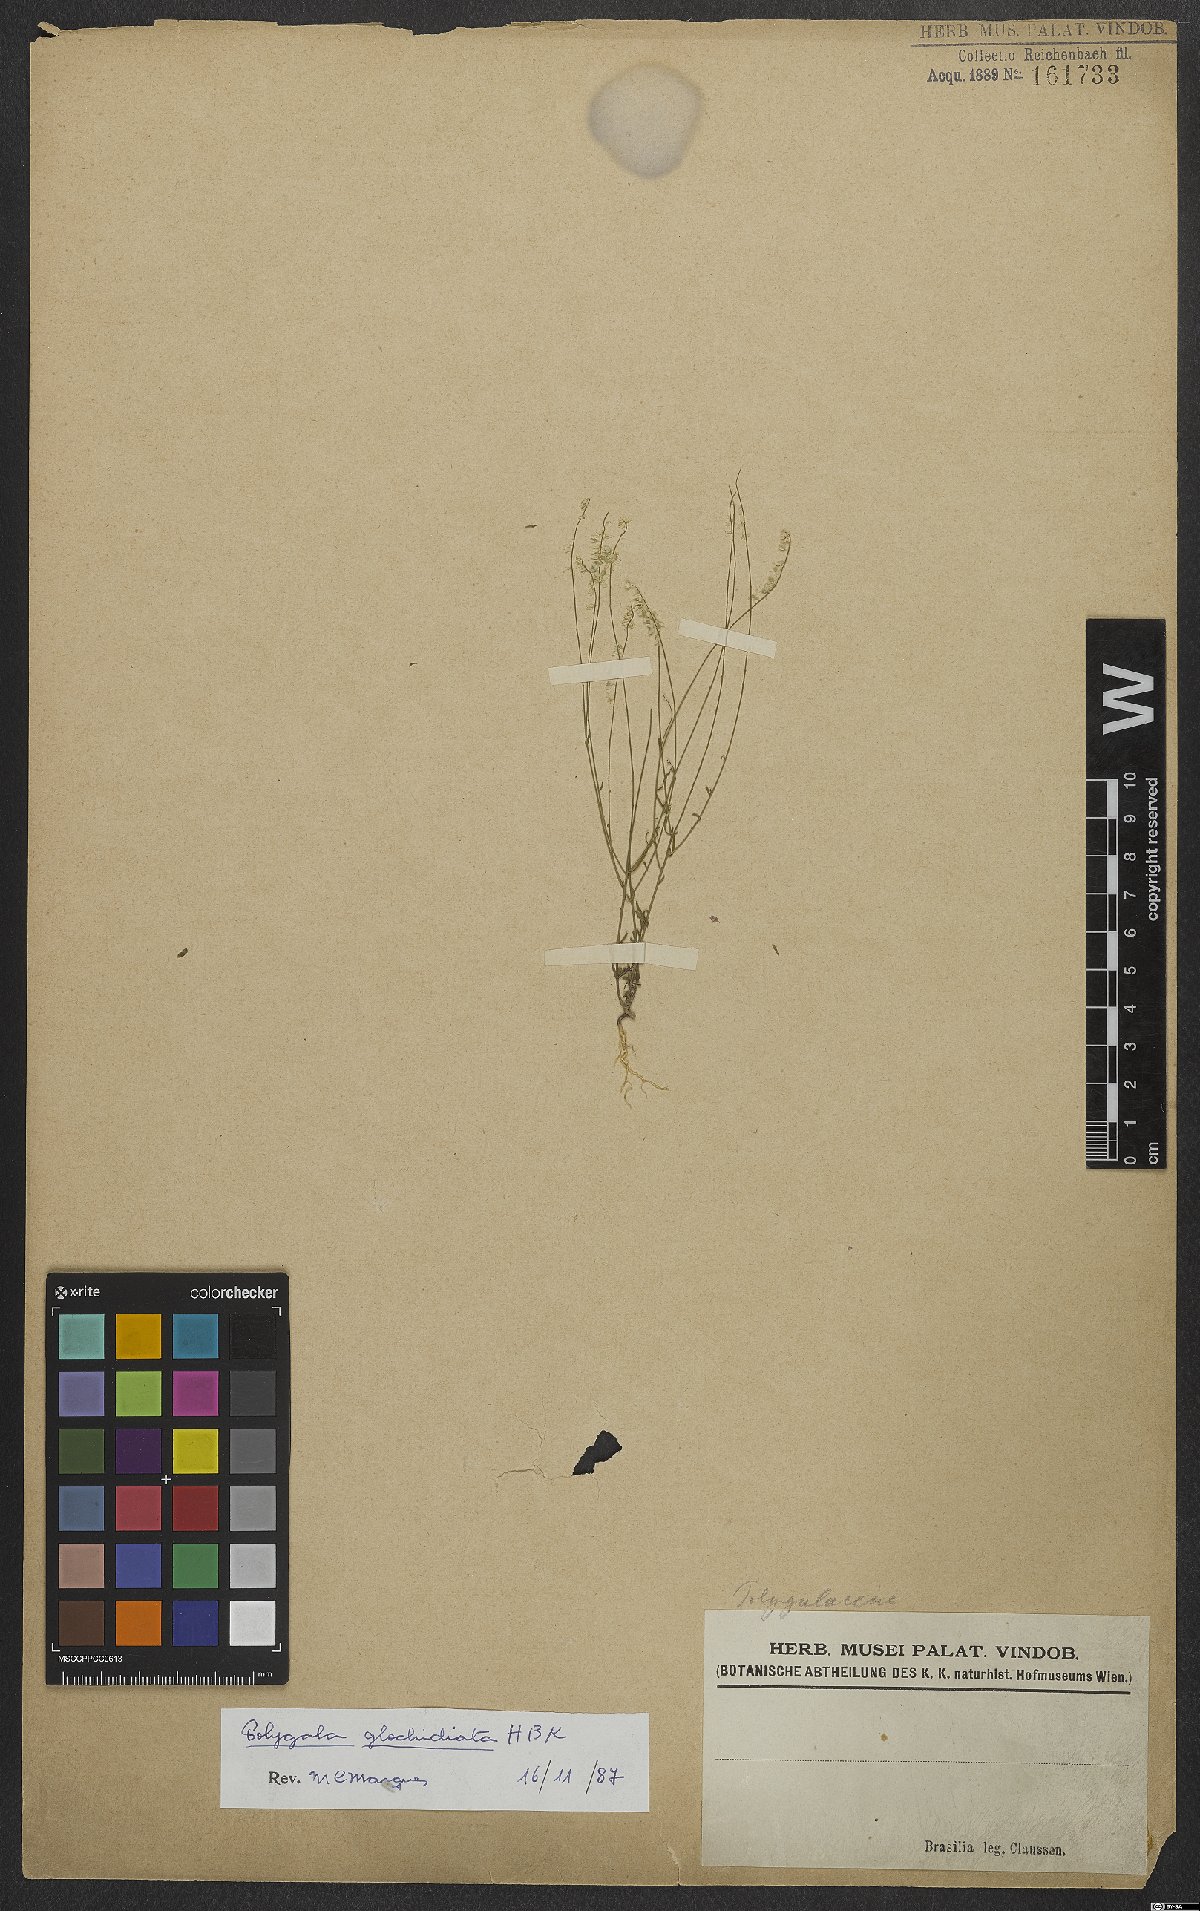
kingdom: Plantae
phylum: Tracheophyta
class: Magnoliopsida
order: Fabales
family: Polygalaceae
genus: Polygala
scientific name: Polygala Senega glochidata
